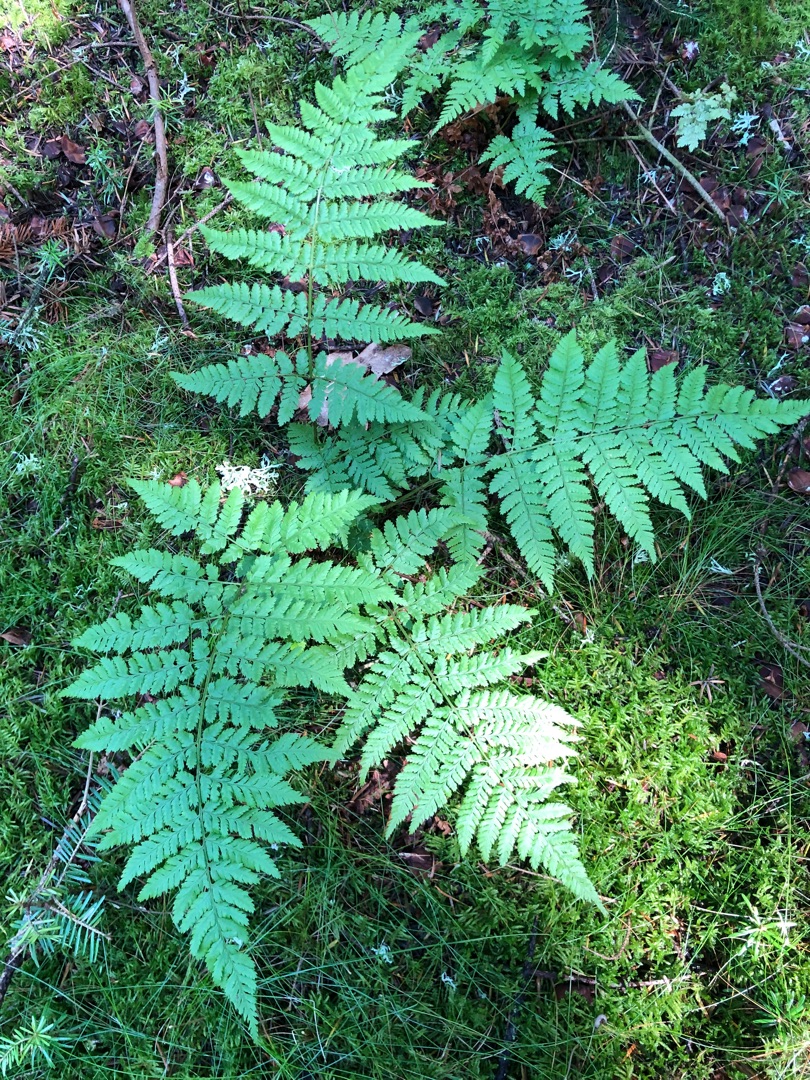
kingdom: Plantae
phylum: Tracheophyta
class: Polypodiopsida
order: Polypodiales
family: Dryopteridaceae
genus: Dryopteris
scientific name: Dryopteris dilatata
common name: Bredbladet mangeløv
